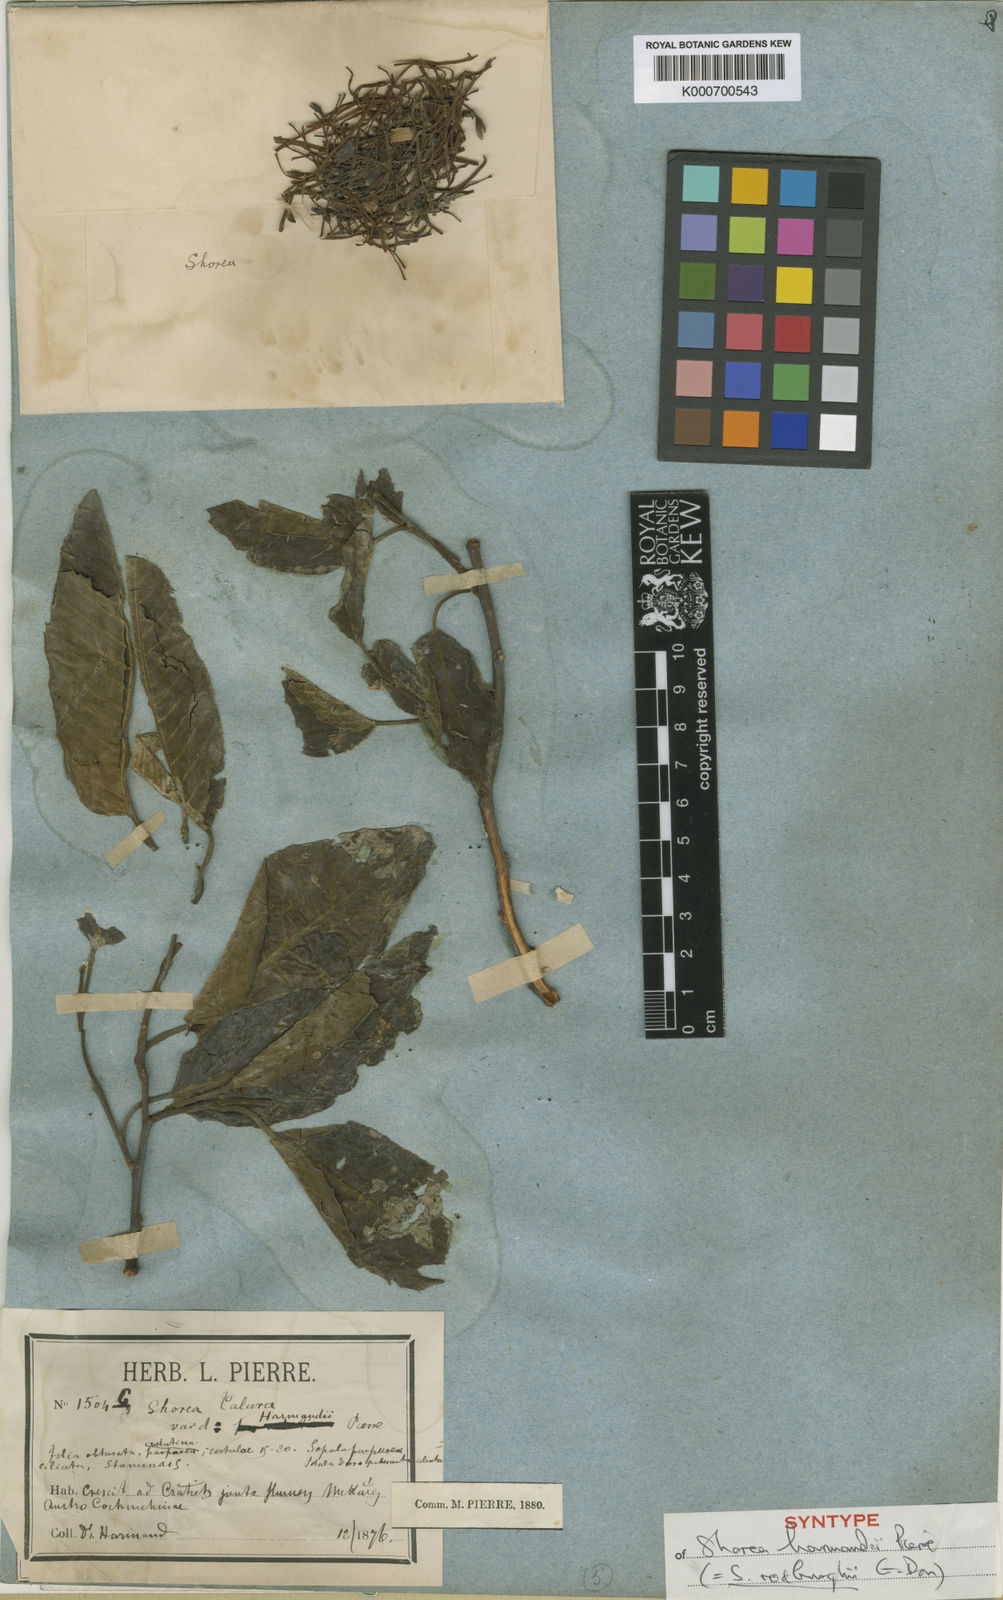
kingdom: Plantae
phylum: Tracheophyta
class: Magnoliopsida
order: Malvales
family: Dipterocarpaceae
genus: Anthoshorea
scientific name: Anthoshorea roxburghii
